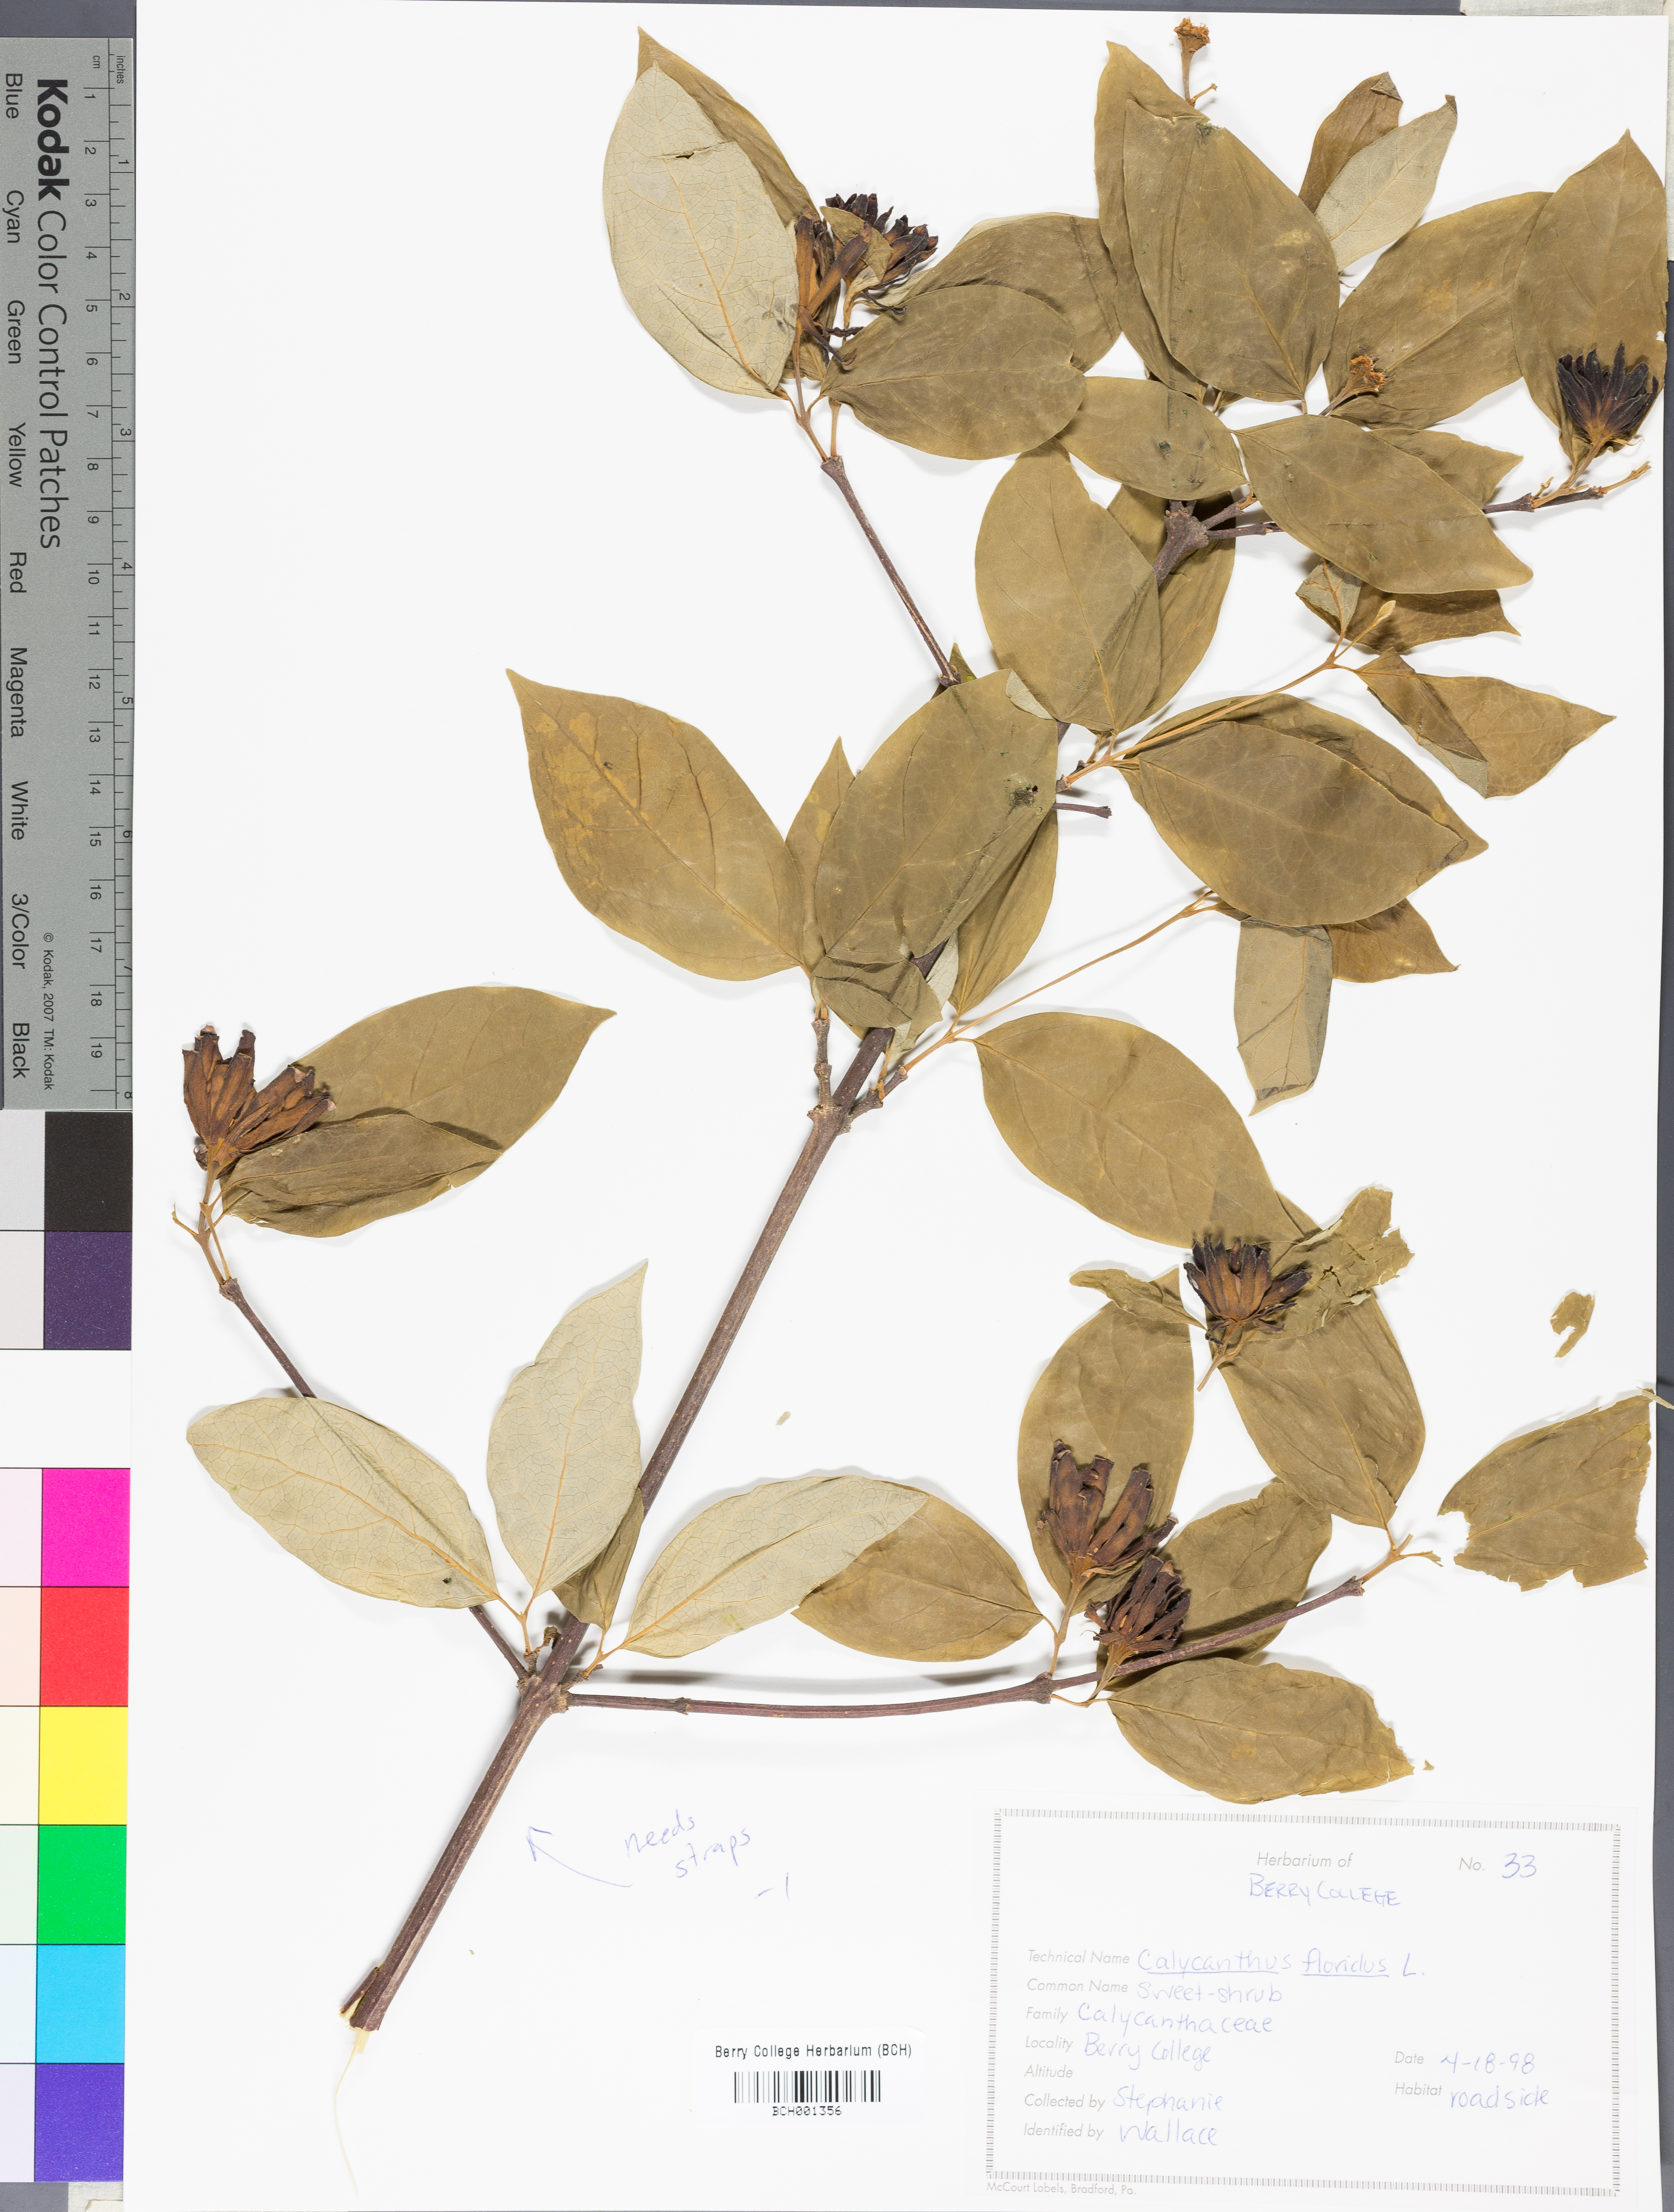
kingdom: Plantae
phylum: Tracheophyta
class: Magnoliopsida
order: Laurales
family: Calycanthaceae
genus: Calycanthus
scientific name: Calycanthus floridus
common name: Carolina-allspice
